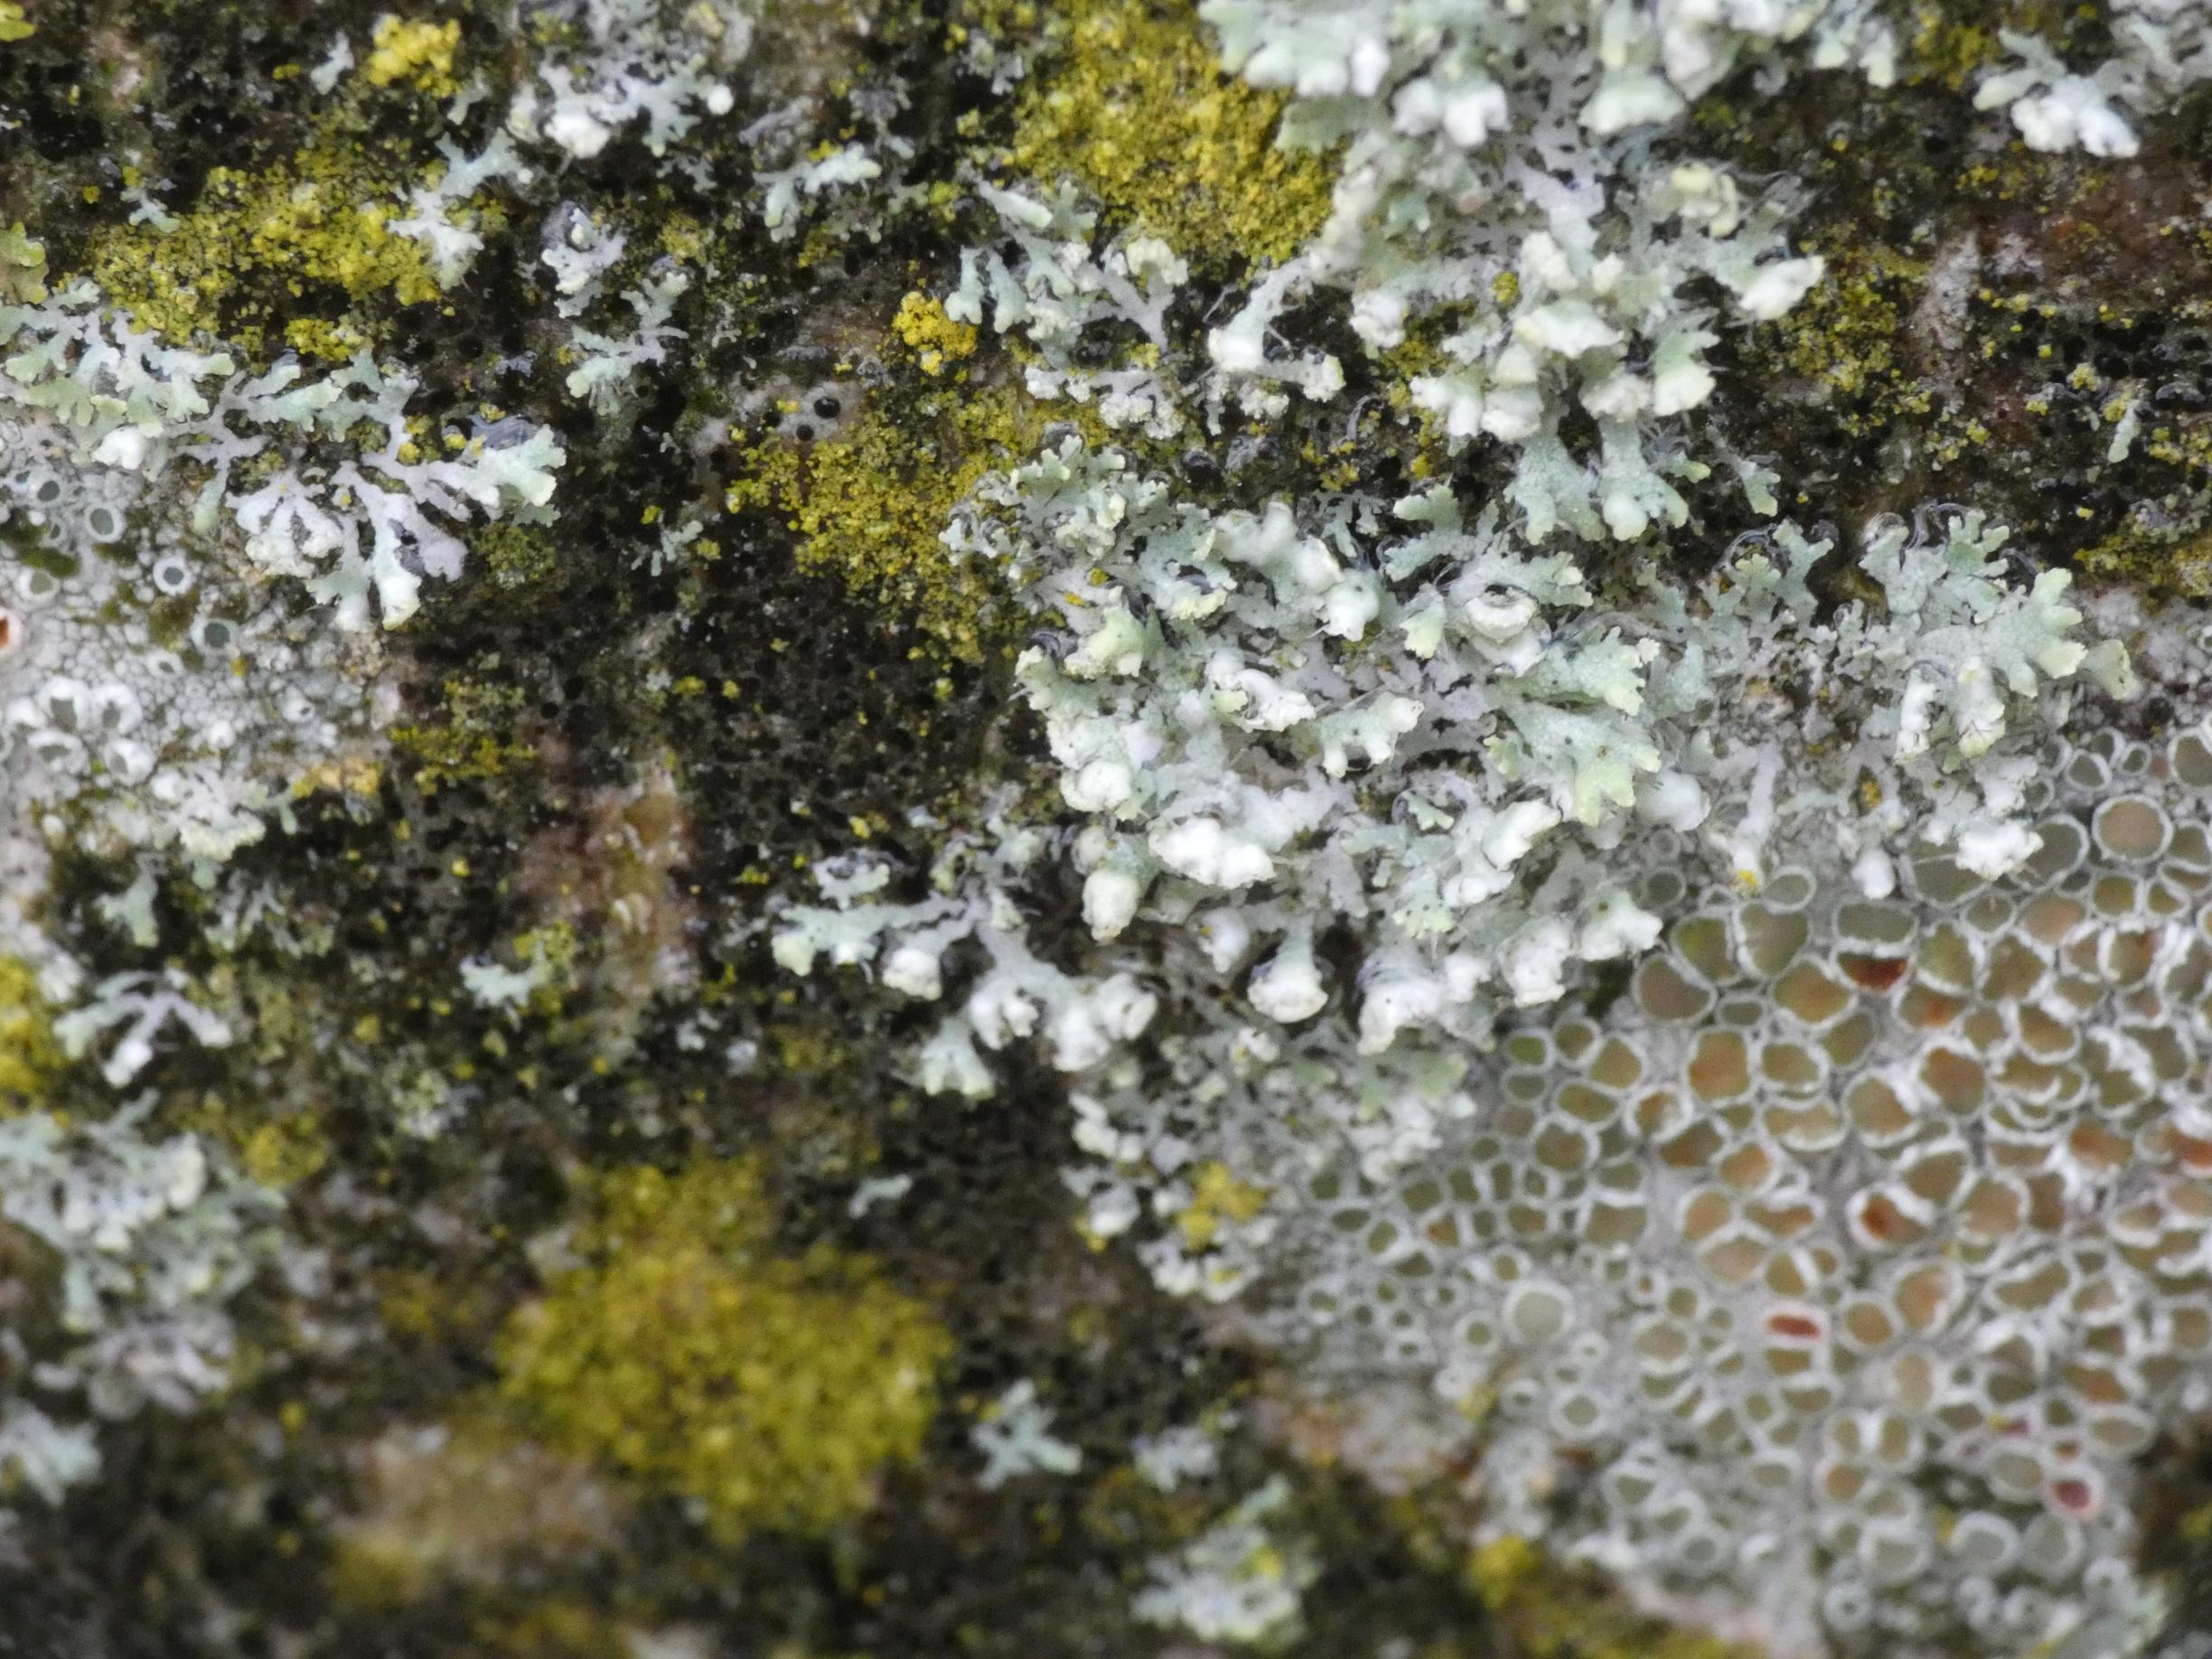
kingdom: Fungi
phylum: Ascomycota
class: Lecanoromycetes
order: Caliciales
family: Physciaceae
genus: Physcia
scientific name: Physcia adscendens
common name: Hætte-rosetlav
